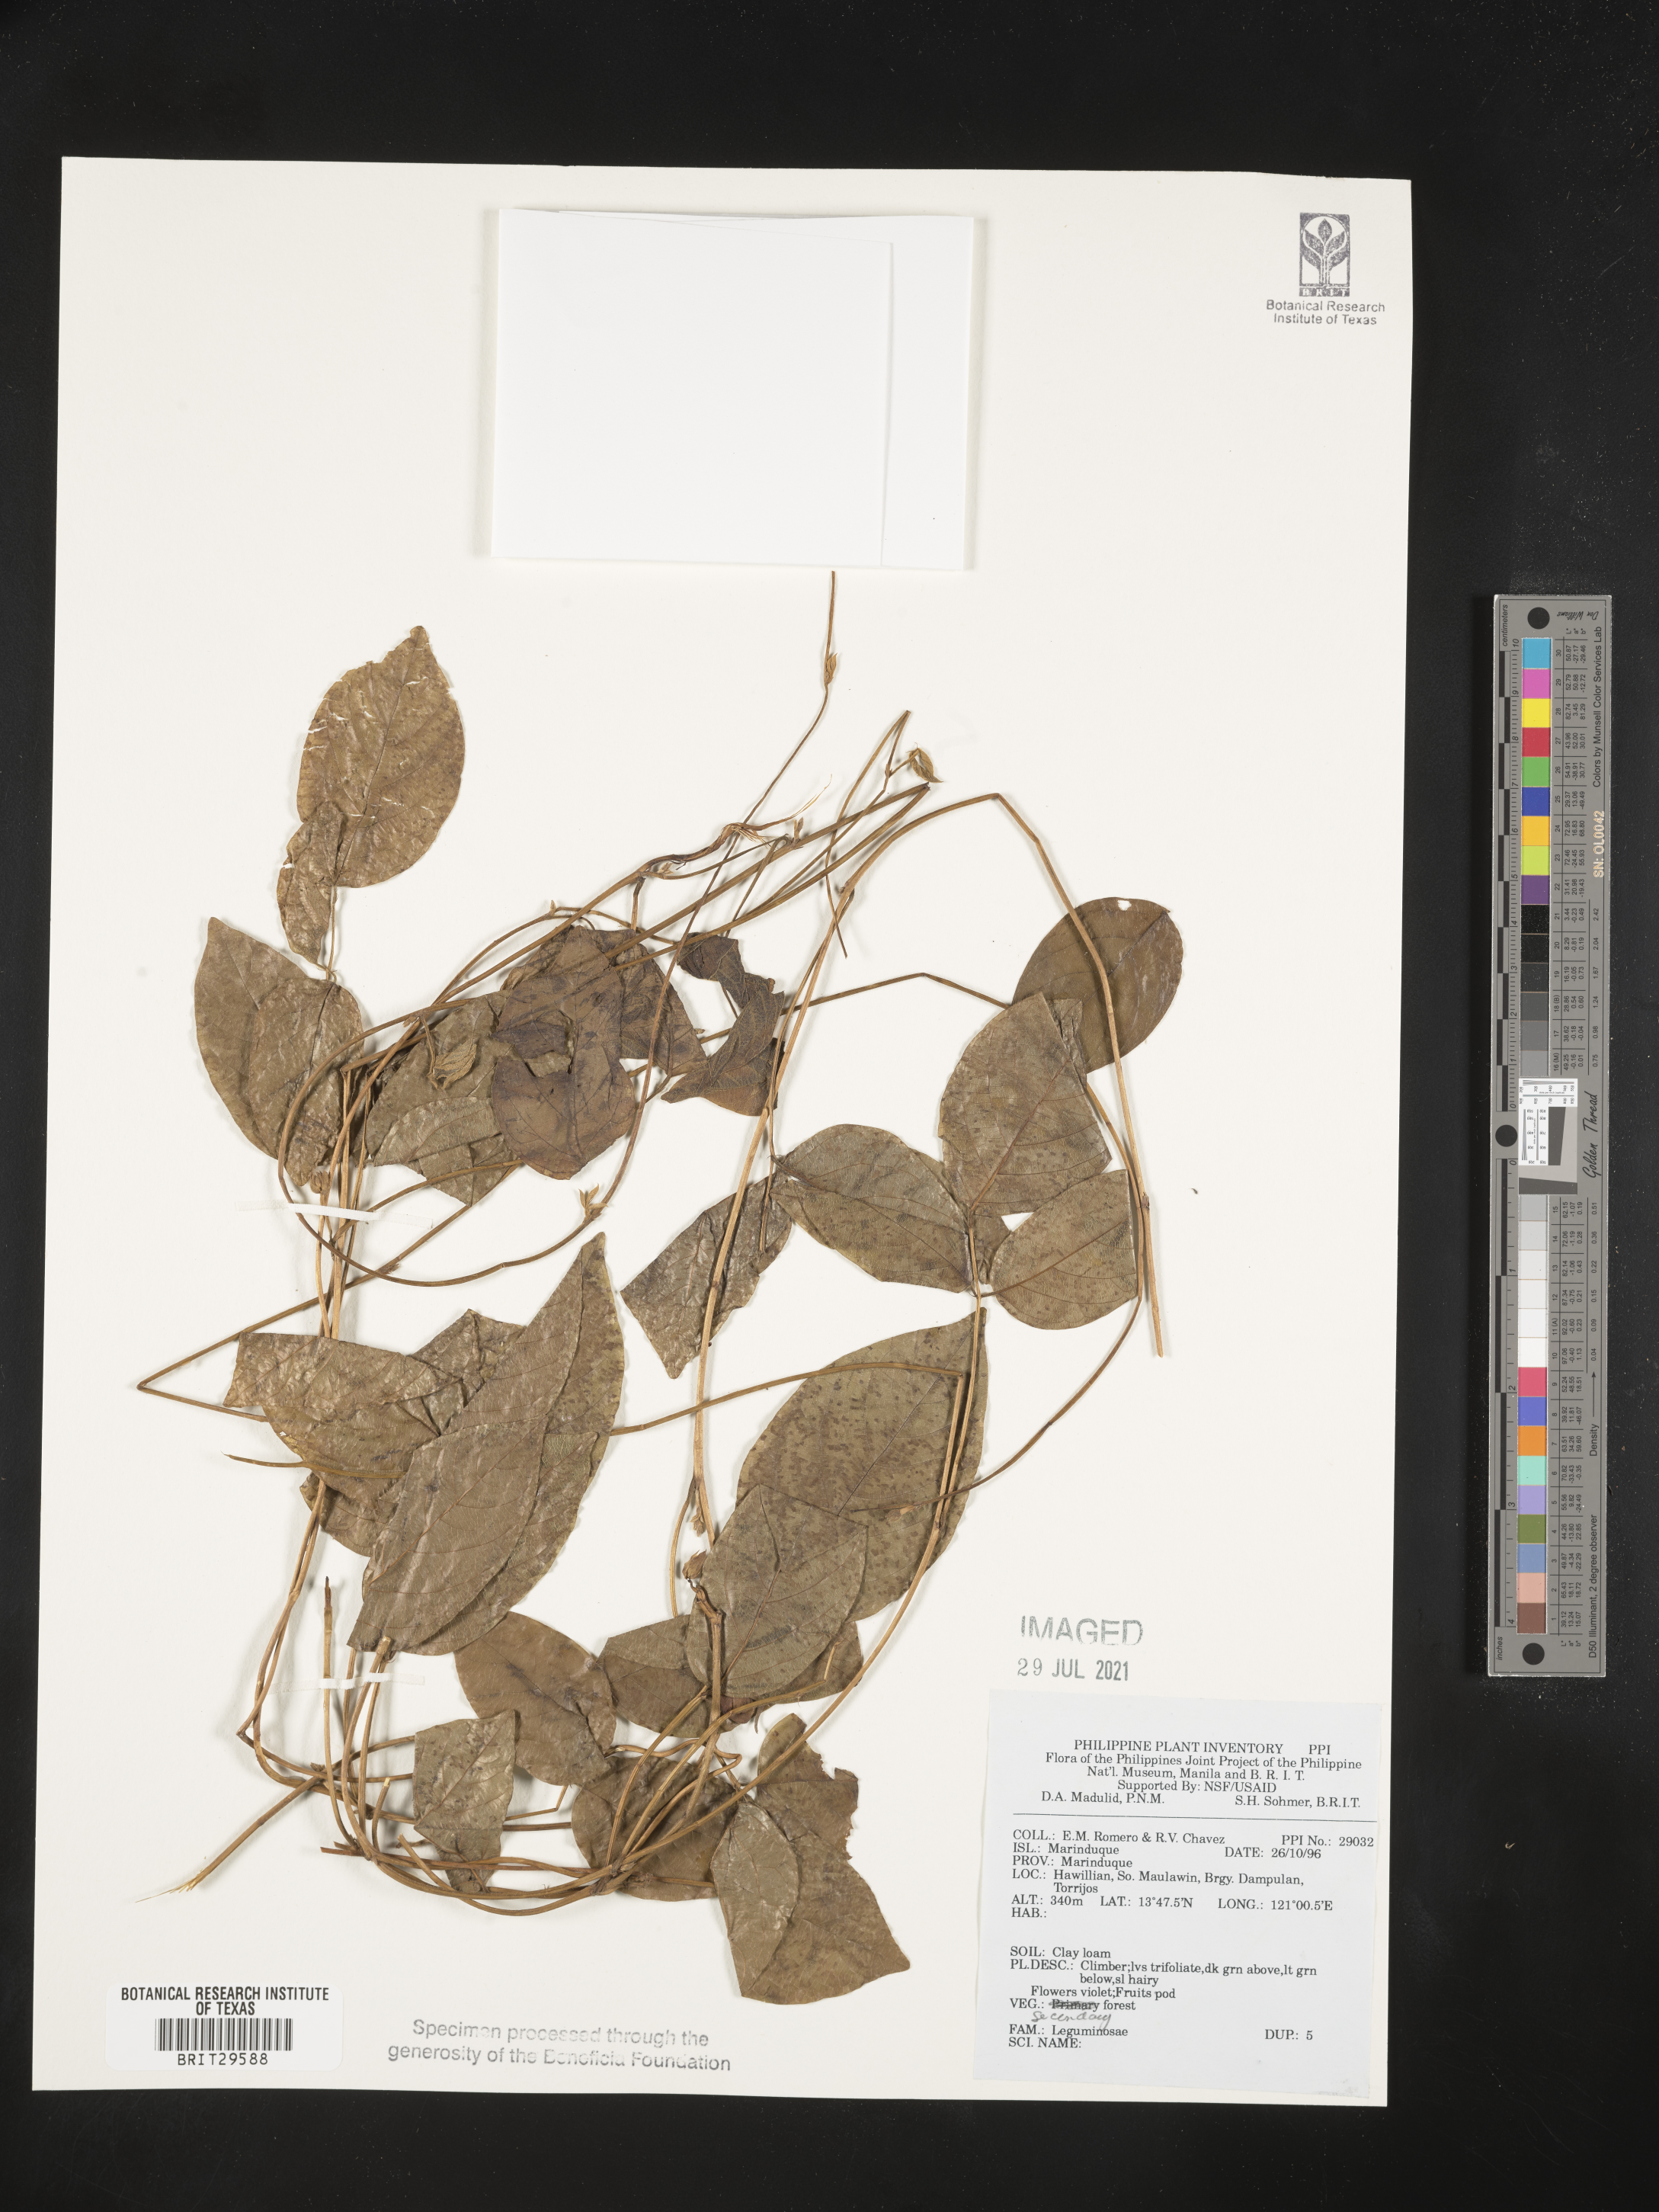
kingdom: Plantae
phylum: Tracheophyta
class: Magnoliopsida
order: Fabales
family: Fabaceae
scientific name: Fabaceae
